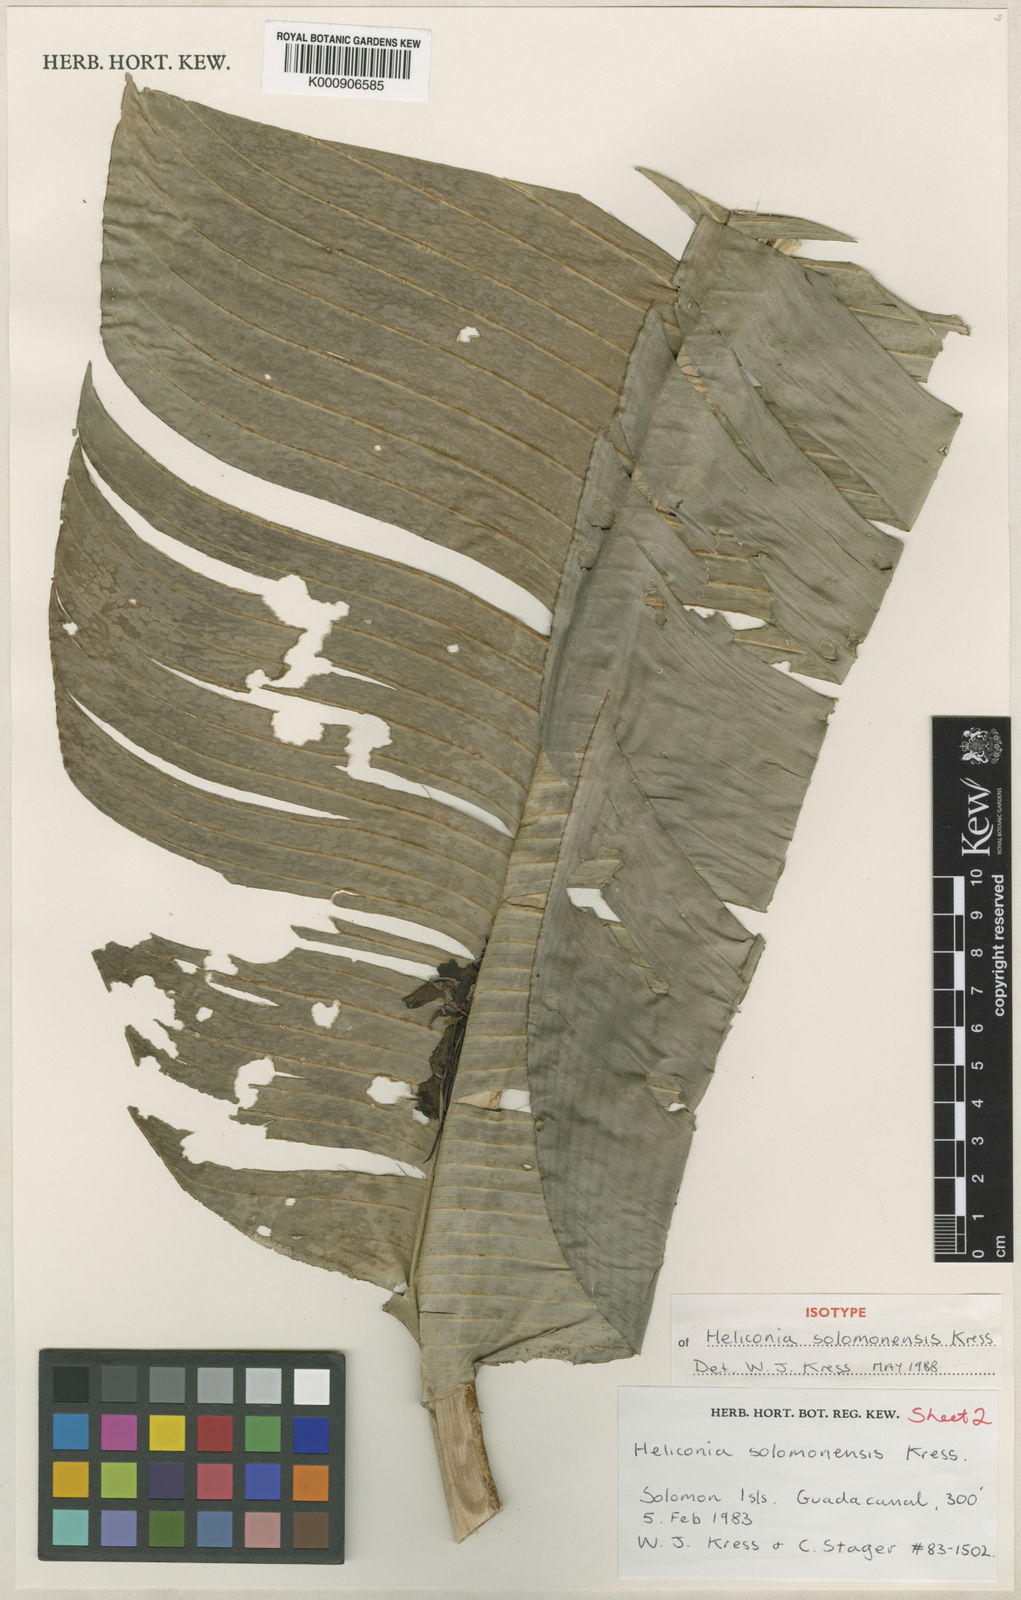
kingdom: Plantae
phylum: Tracheophyta
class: Liliopsida
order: Zingiberales
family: Heliconiaceae
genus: Heliconia
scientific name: Heliconia solomonensis
